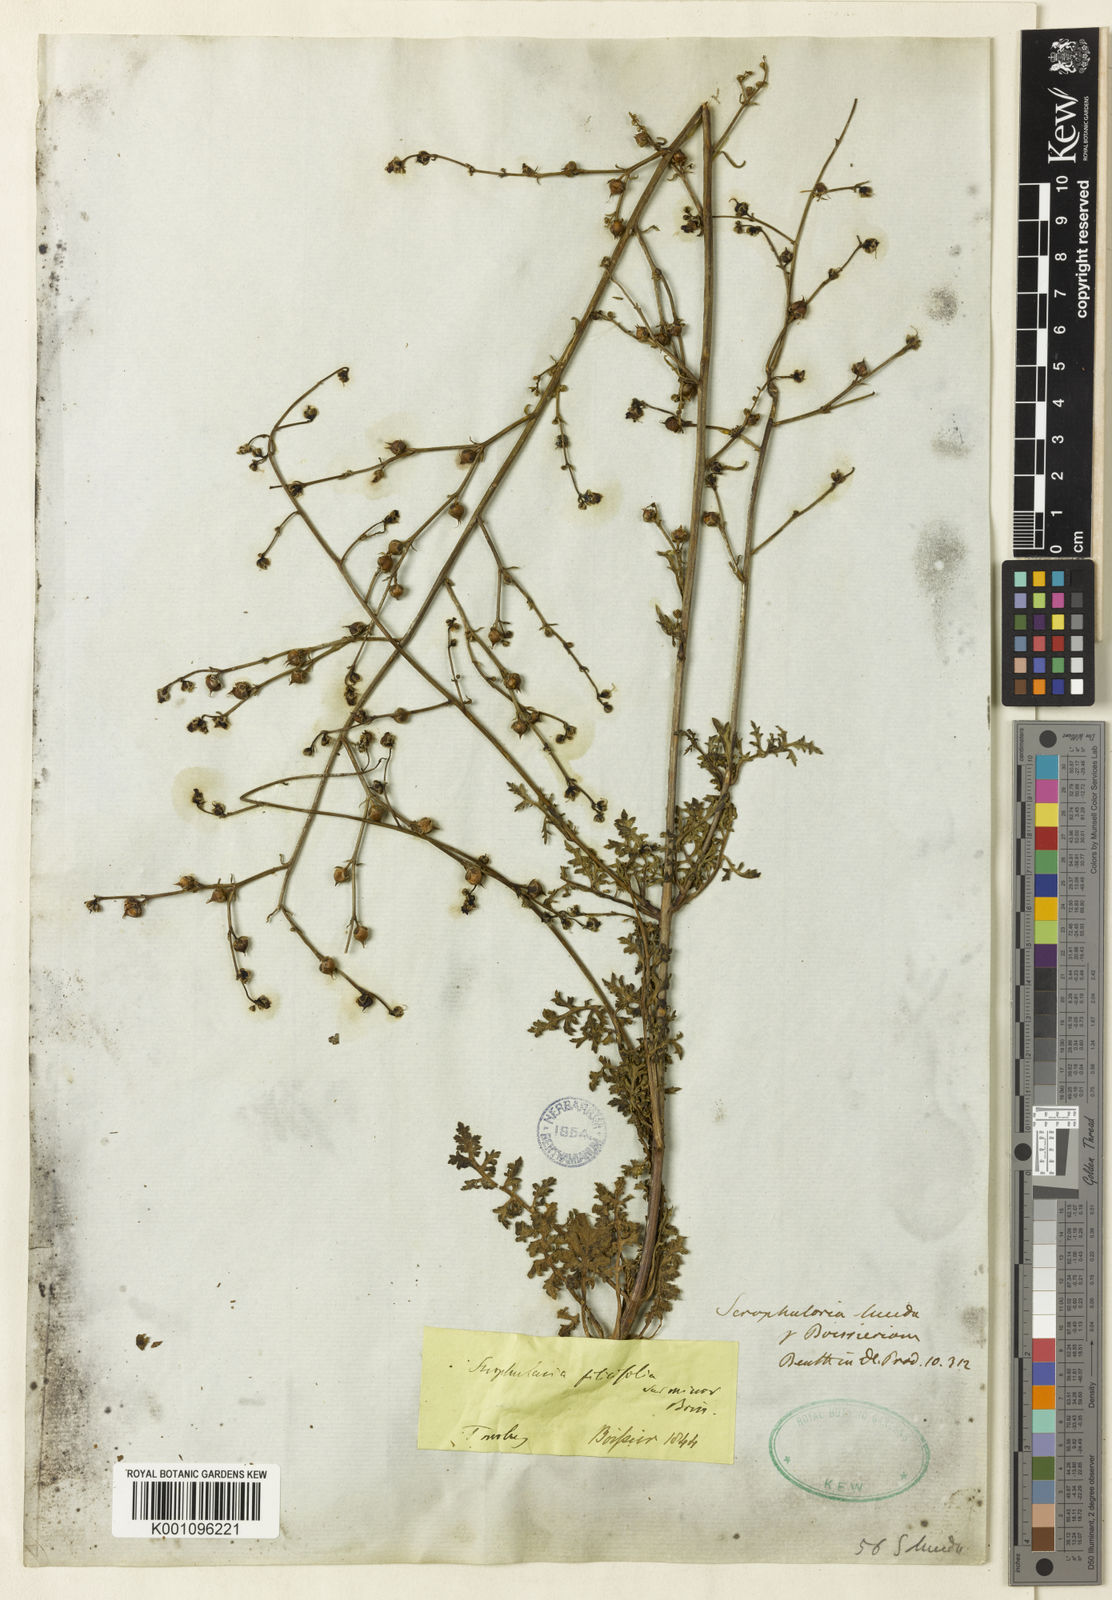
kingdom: Plantae
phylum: Tracheophyta
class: Magnoliopsida
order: Lamiales
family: Scrophulariaceae
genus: Scrophularia
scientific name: Scrophularia lucida
